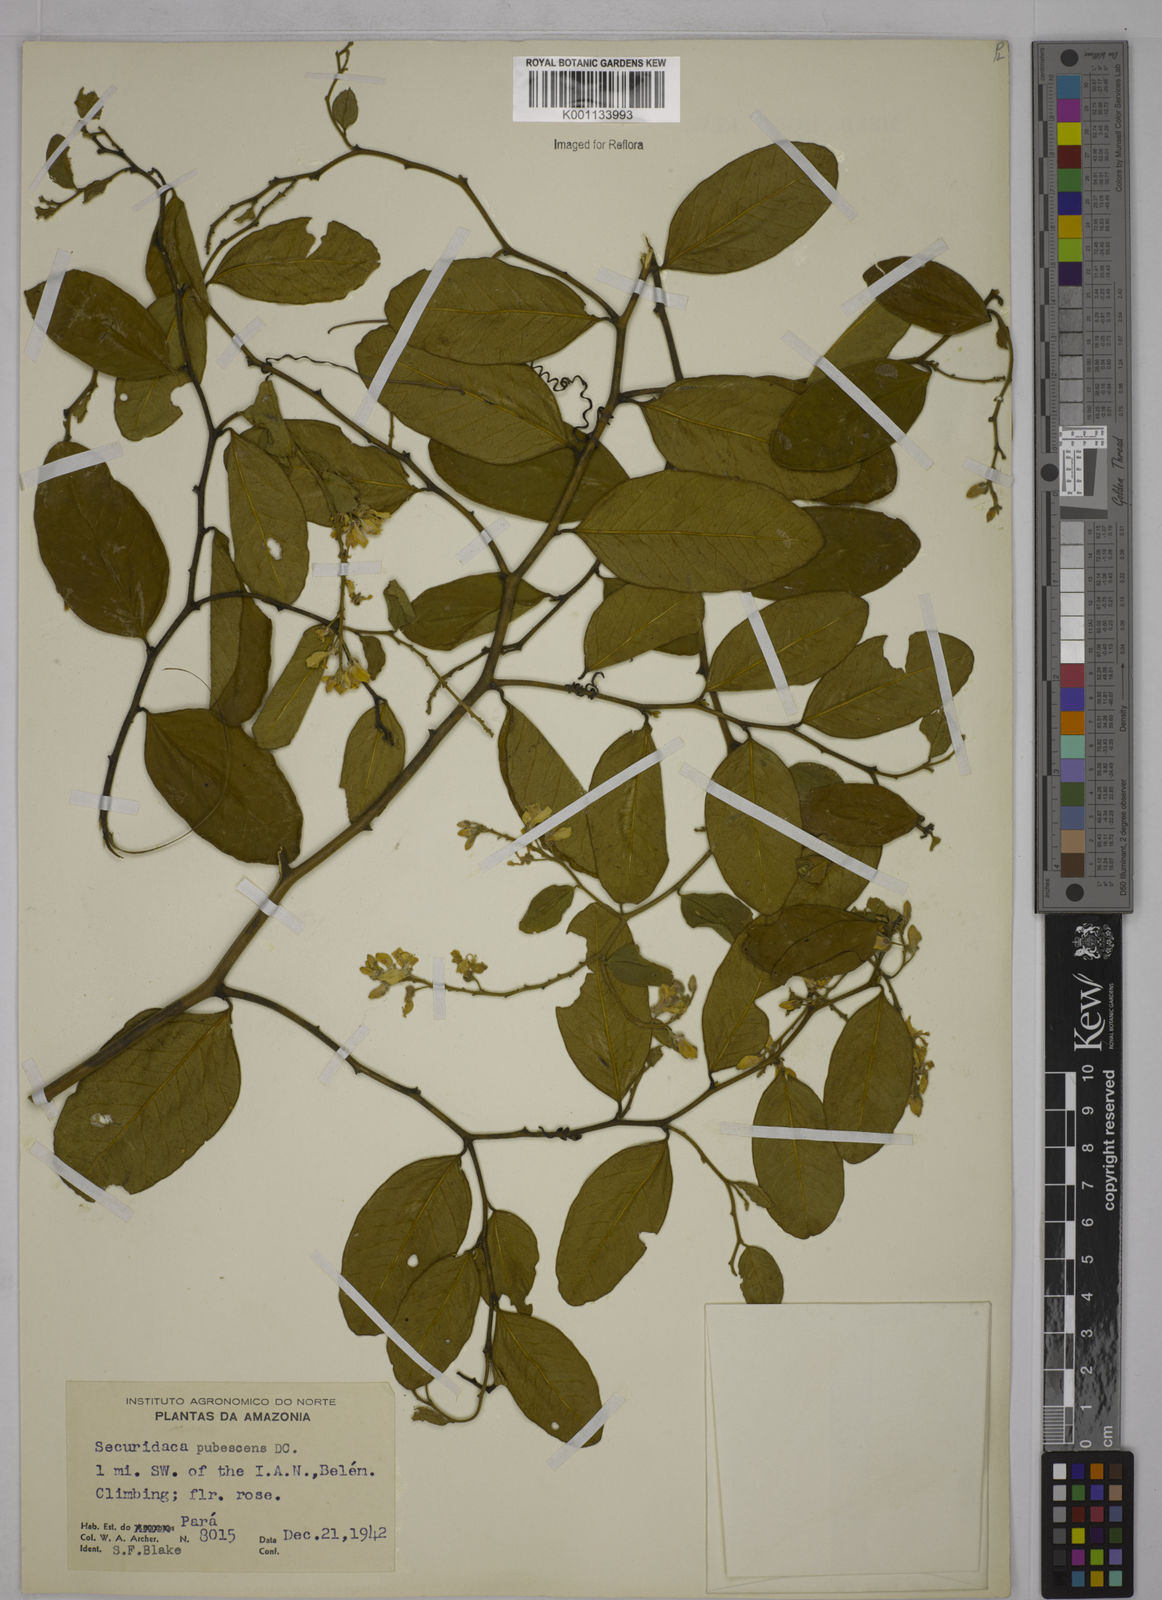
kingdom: Plantae
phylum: Tracheophyta
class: Magnoliopsida
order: Fabales
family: Polygalaceae
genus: Securidaca
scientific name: Securidaca diversifolia
